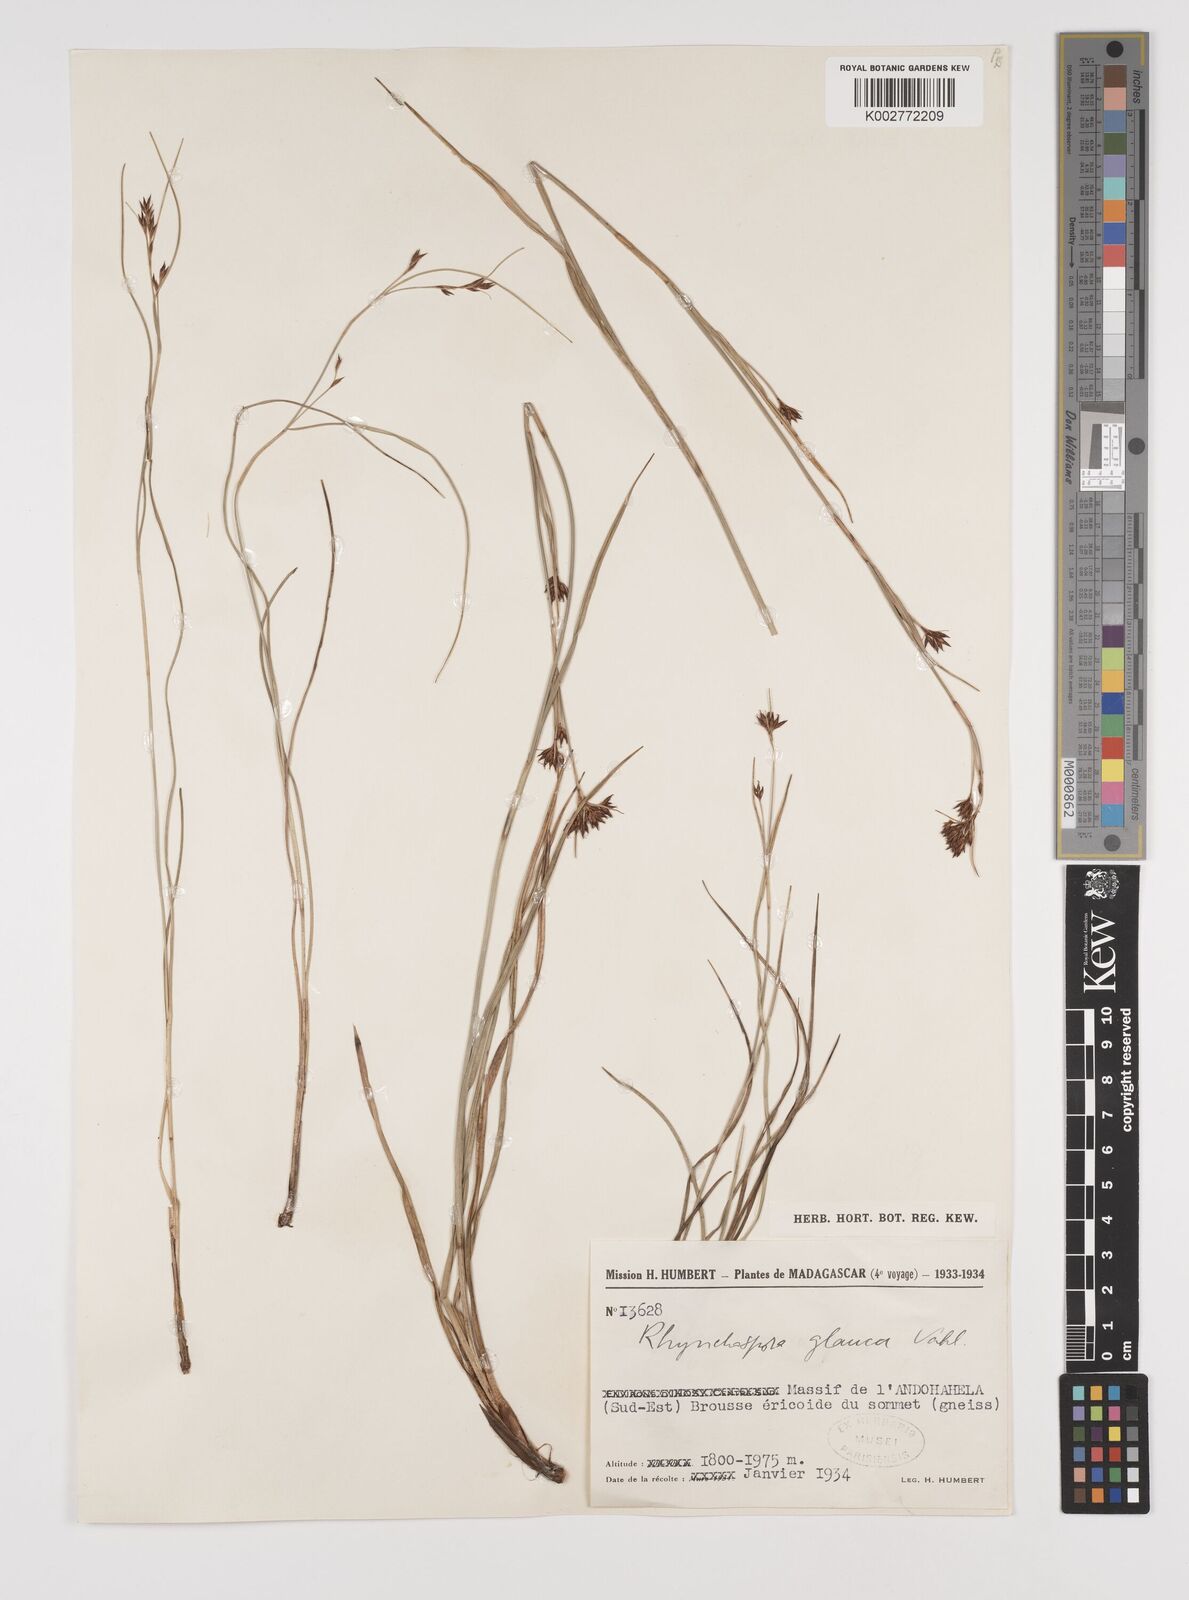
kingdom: Plantae
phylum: Tracheophyta
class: Liliopsida
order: Poales
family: Cyperaceae
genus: Rhynchospora
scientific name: Rhynchospora rugosa
